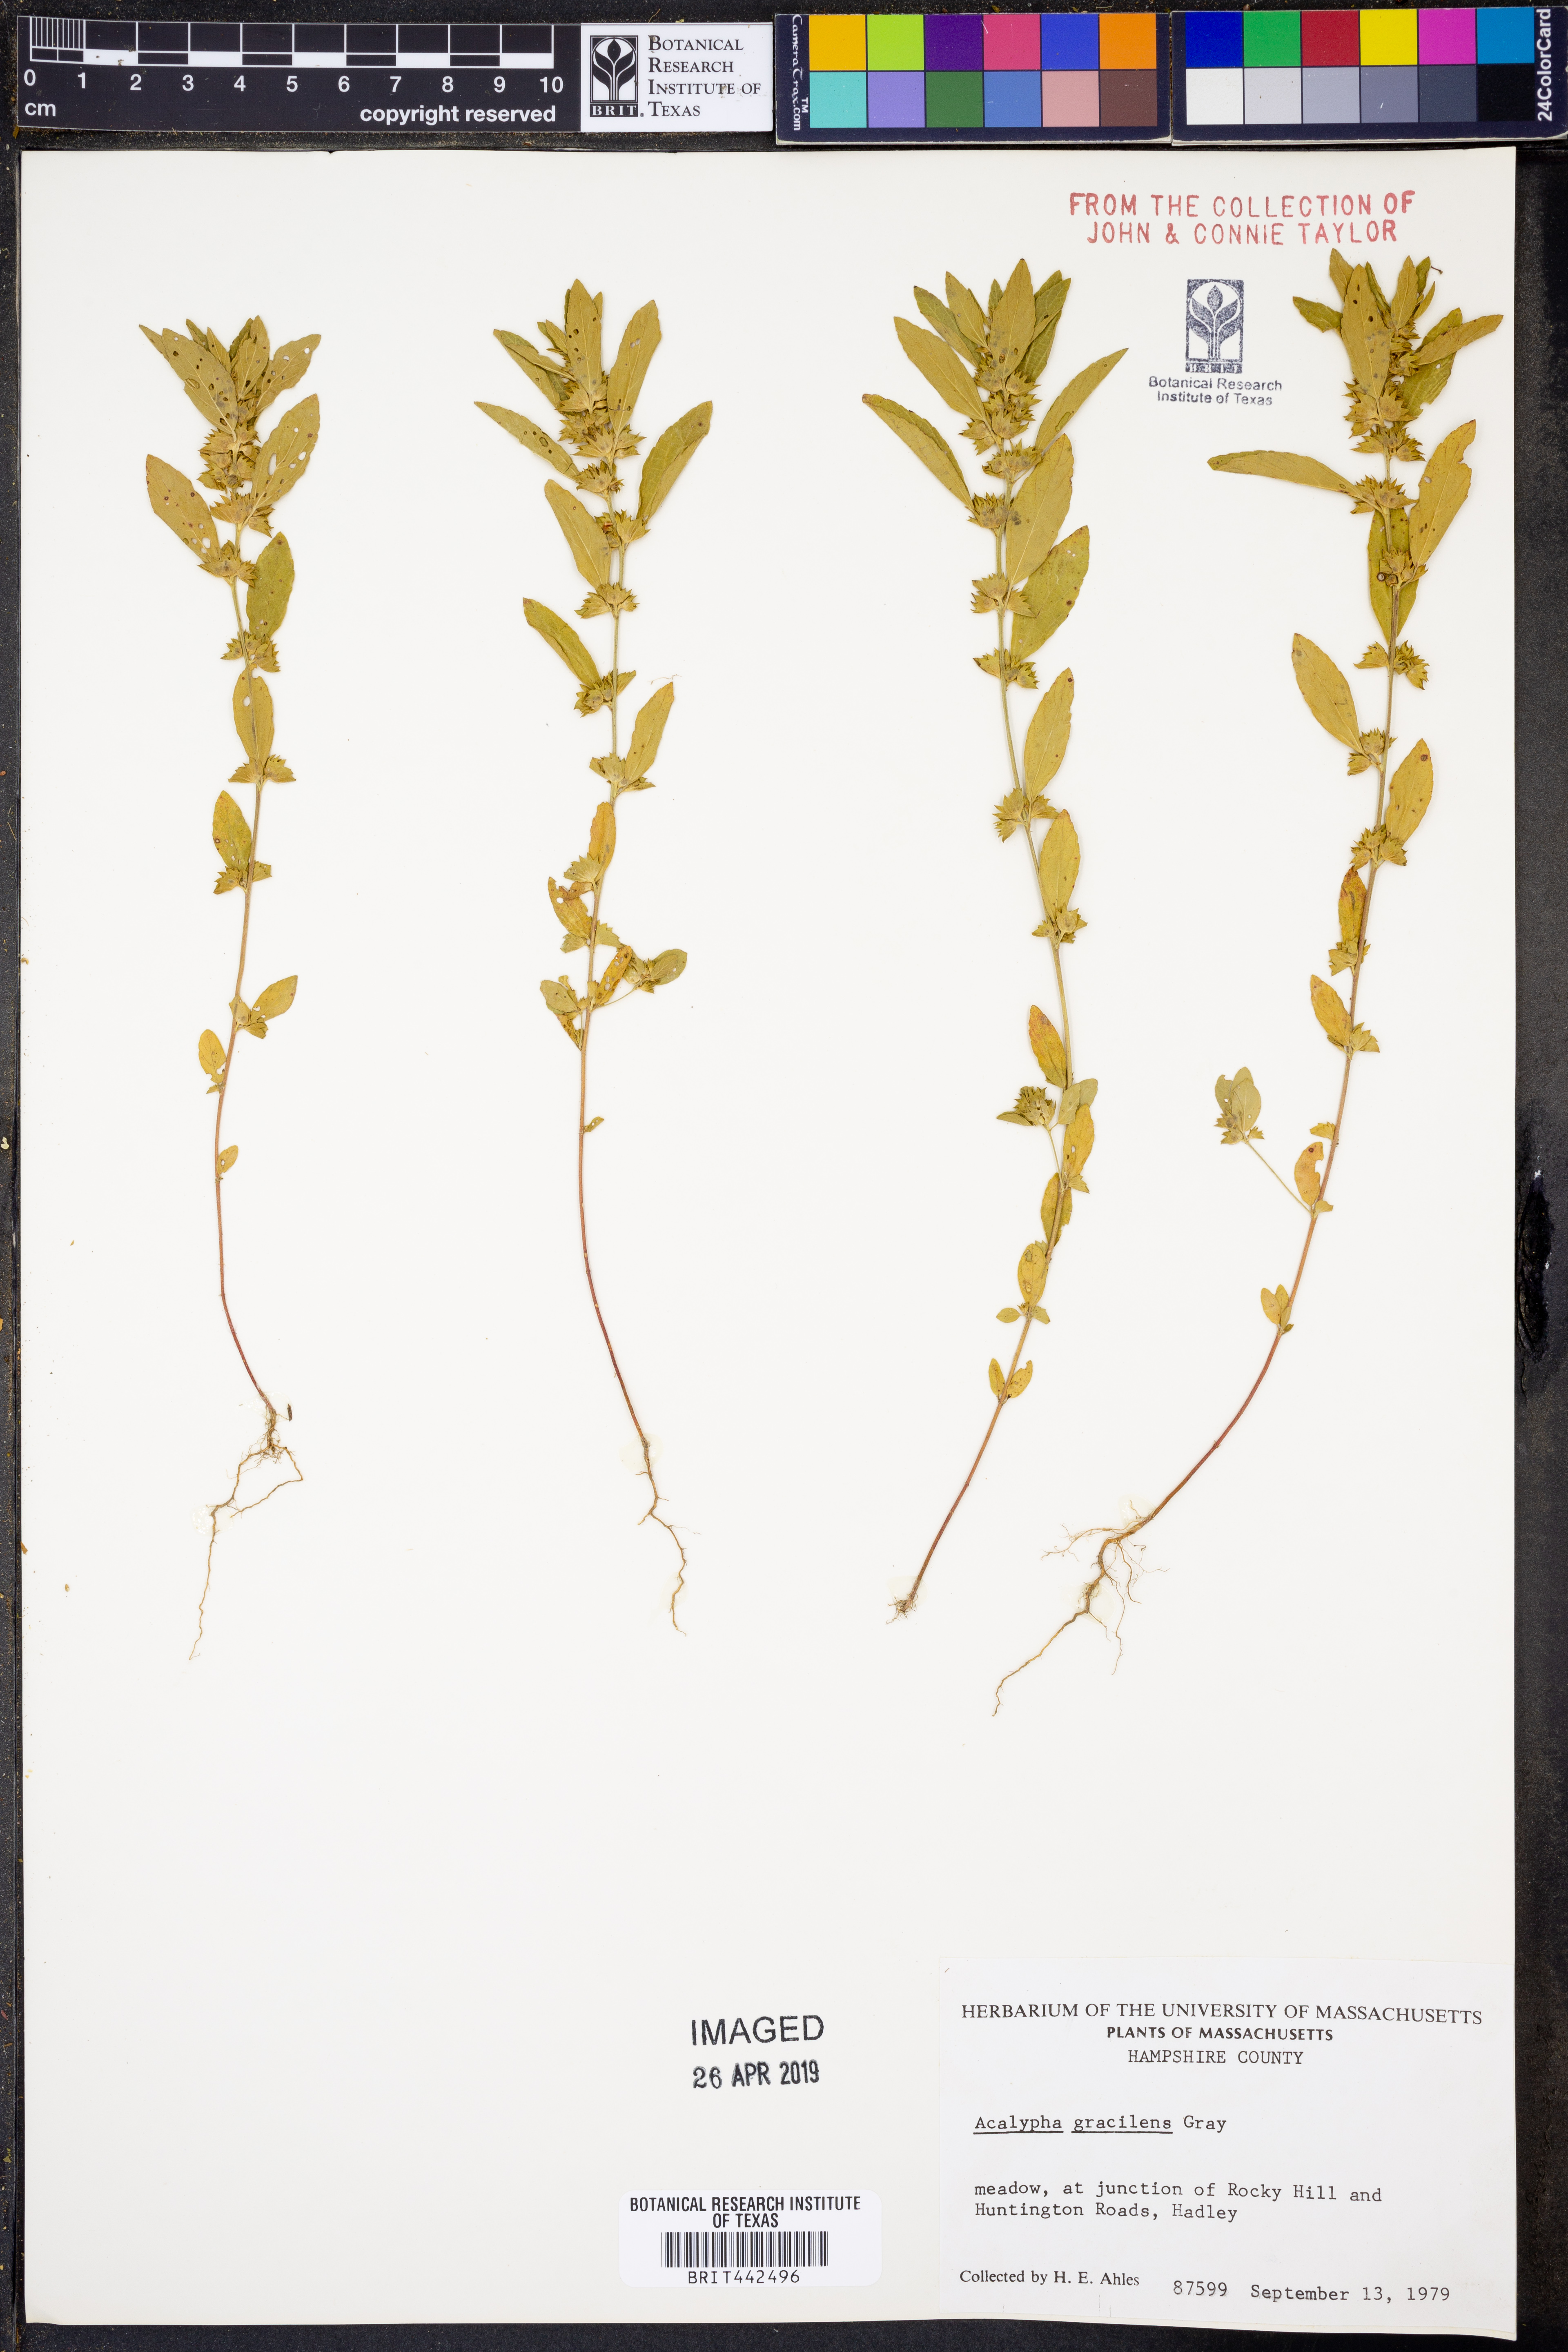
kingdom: Plantae
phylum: Tracheophyta
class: Magnoliopsida
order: Malpighiales
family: Euphorbiaceae
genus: Acalypha
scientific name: Acalypha gracilens
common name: Slender three-seeded mercury
